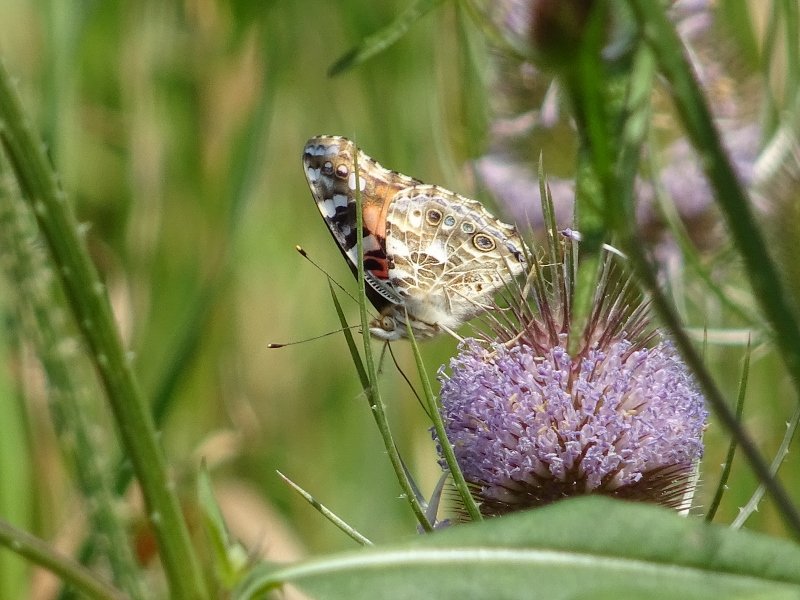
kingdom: Animalia
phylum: Arthropoda
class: Insecta
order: Lepidoptera
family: Nymphalidae
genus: Vanessa
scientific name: Vanessa cardui
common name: Painted Lady
